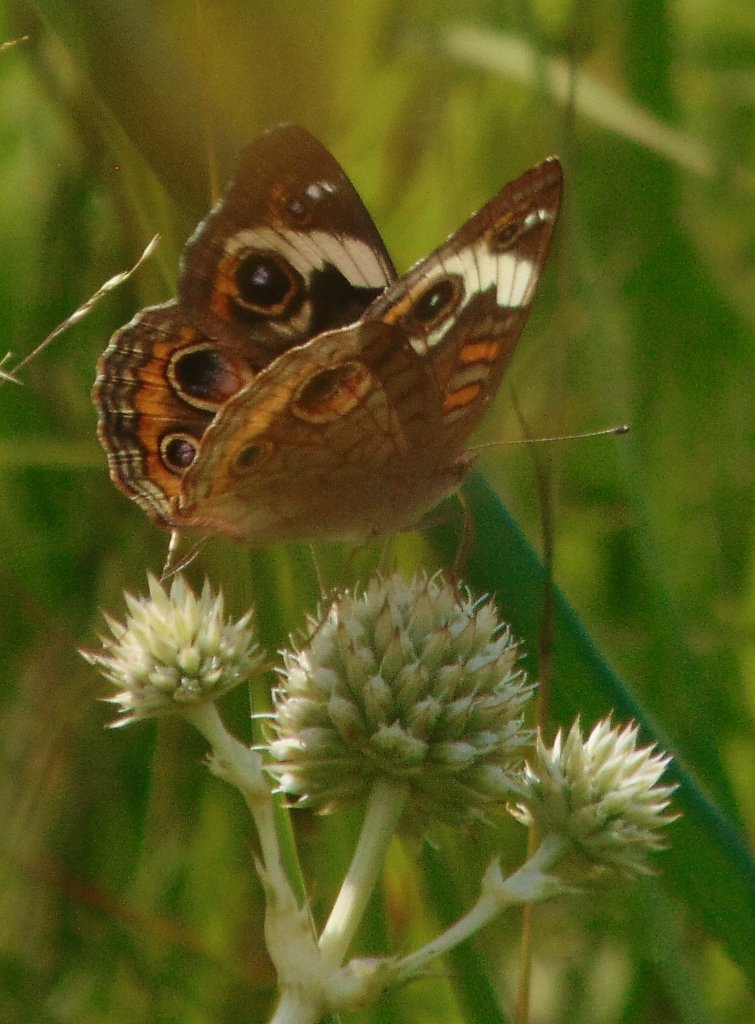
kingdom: Animalia
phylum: Arthropoda
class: Insecta
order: Lepidoptera
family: Nymphalidae
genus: Junonia
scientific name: Junonia coenia
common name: Common Buckeye
